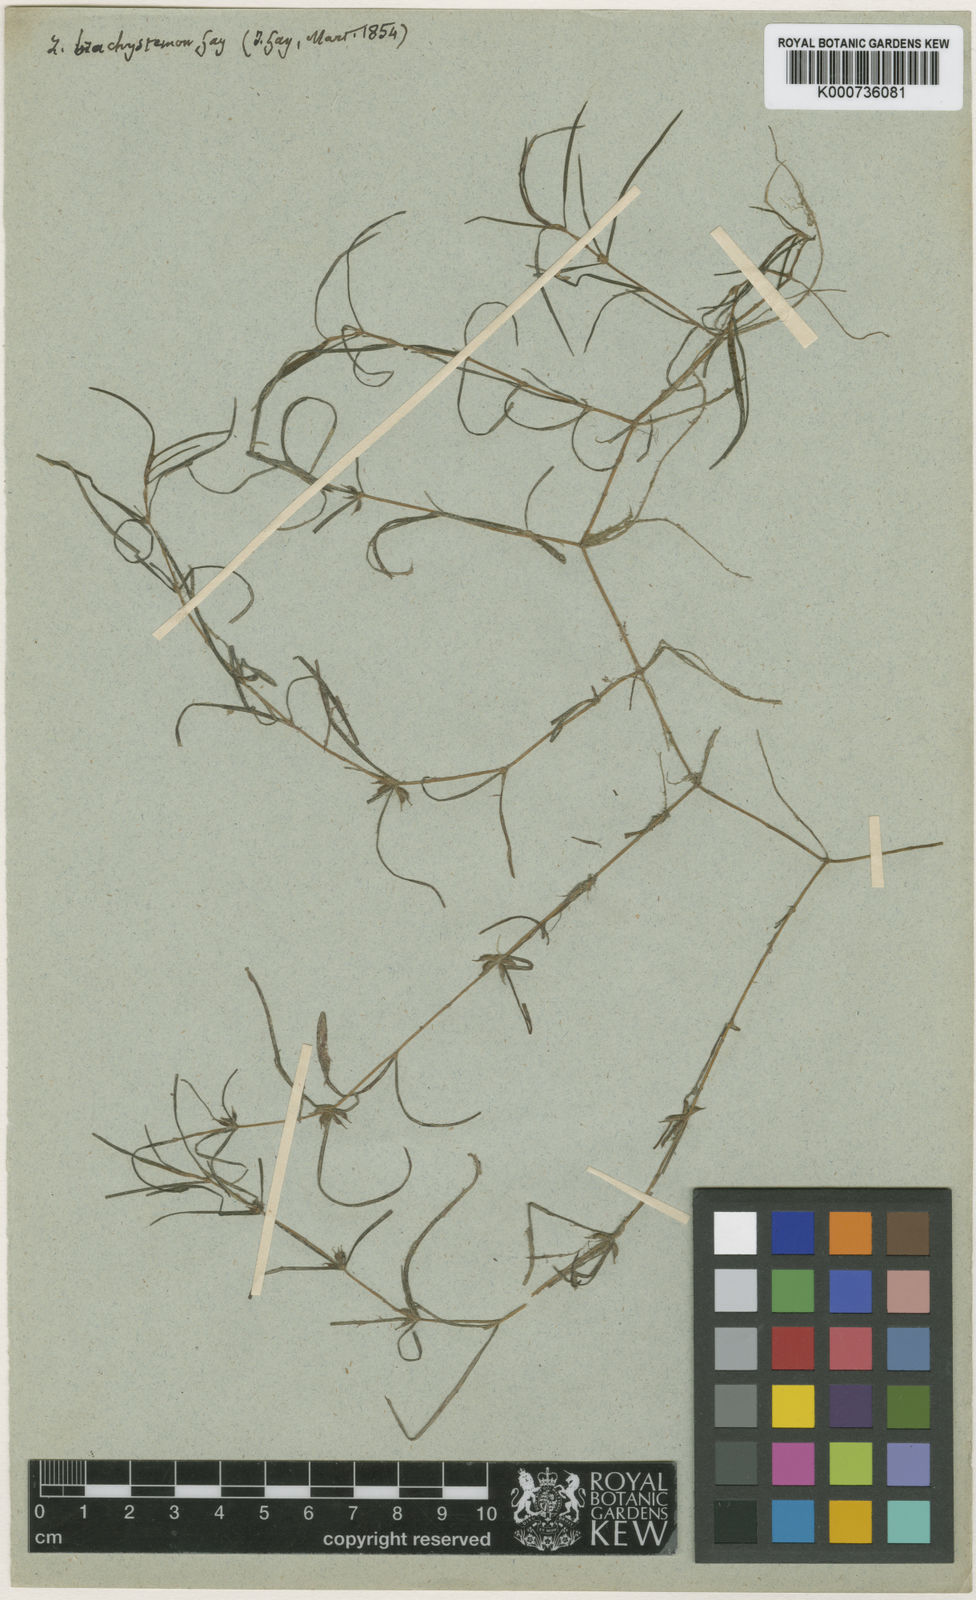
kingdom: Plantae
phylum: Tracheophyta
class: Liliopsida
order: Alismatales
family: Potamogetonaceae
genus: Zannichellia
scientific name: Zannichellia palustris
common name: Horned pondweed
